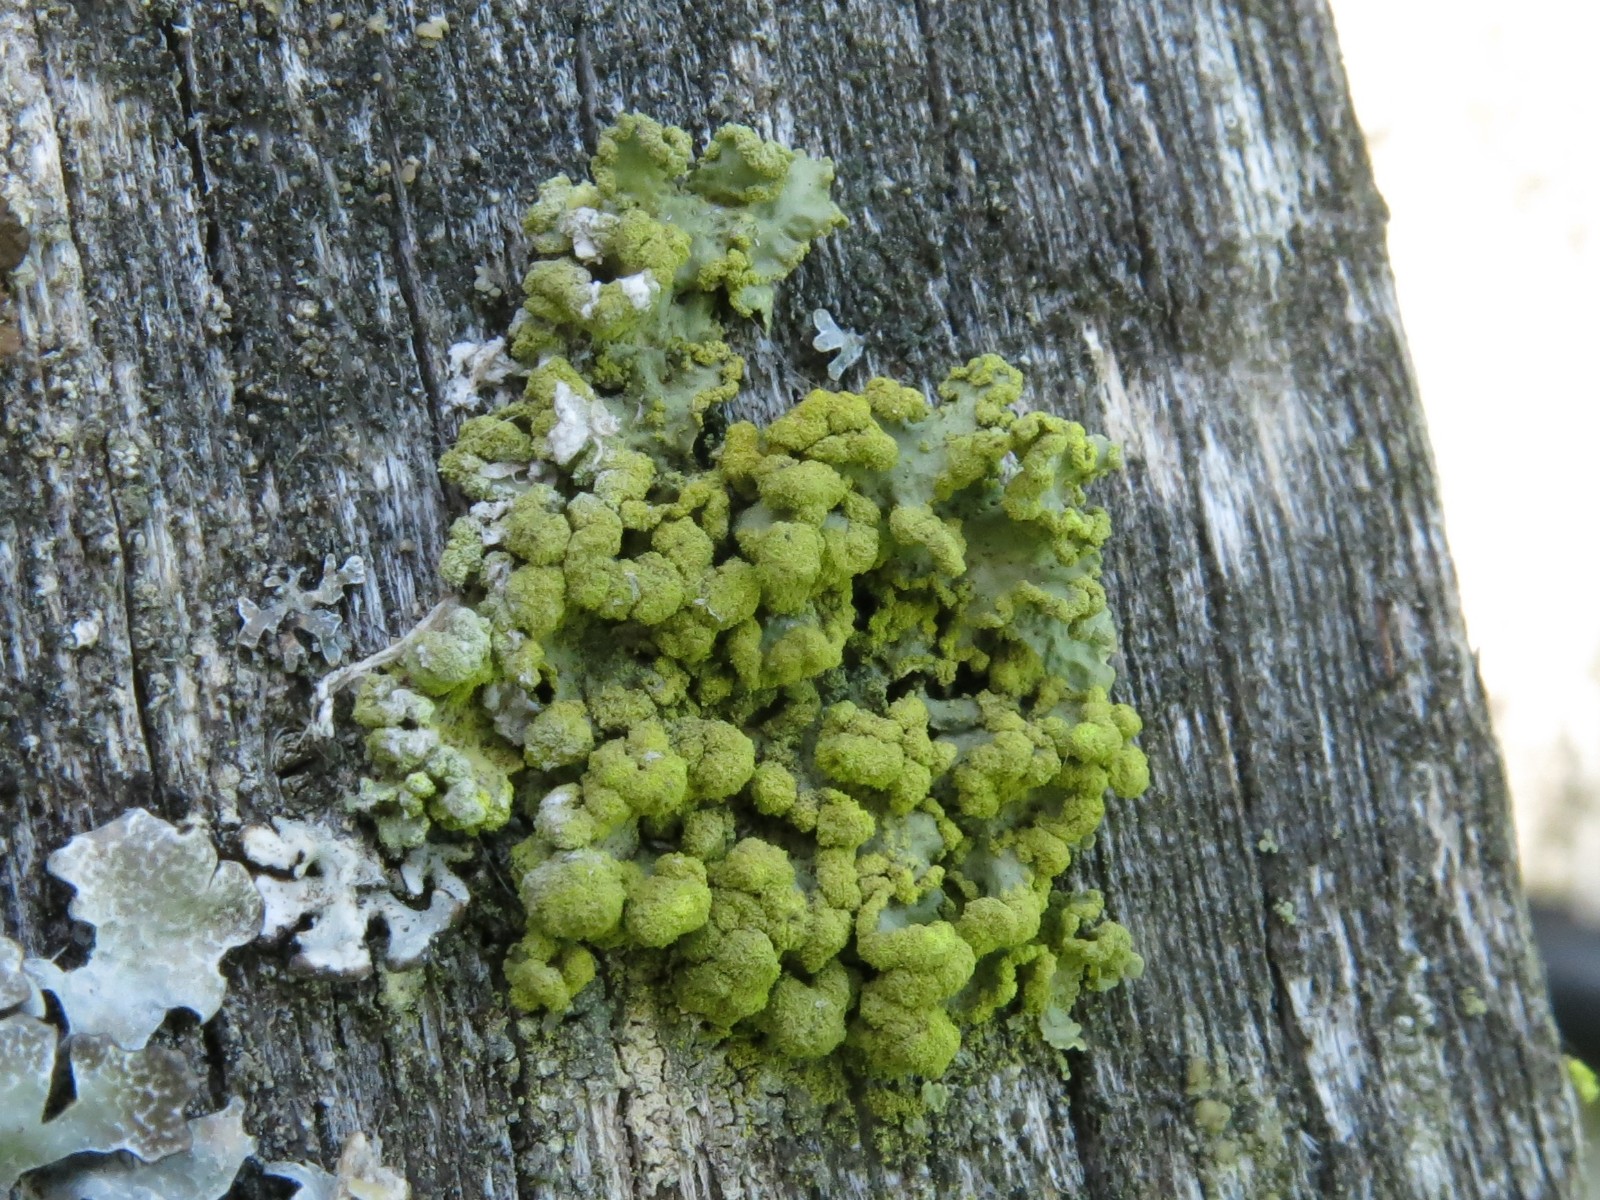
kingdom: Fungi
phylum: Ascomycota
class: Lecanoromycetes
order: Lecanorales
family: Parmeliaceae
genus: Vulpicida
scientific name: Vulpicida pinastri
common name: gul kruslav
